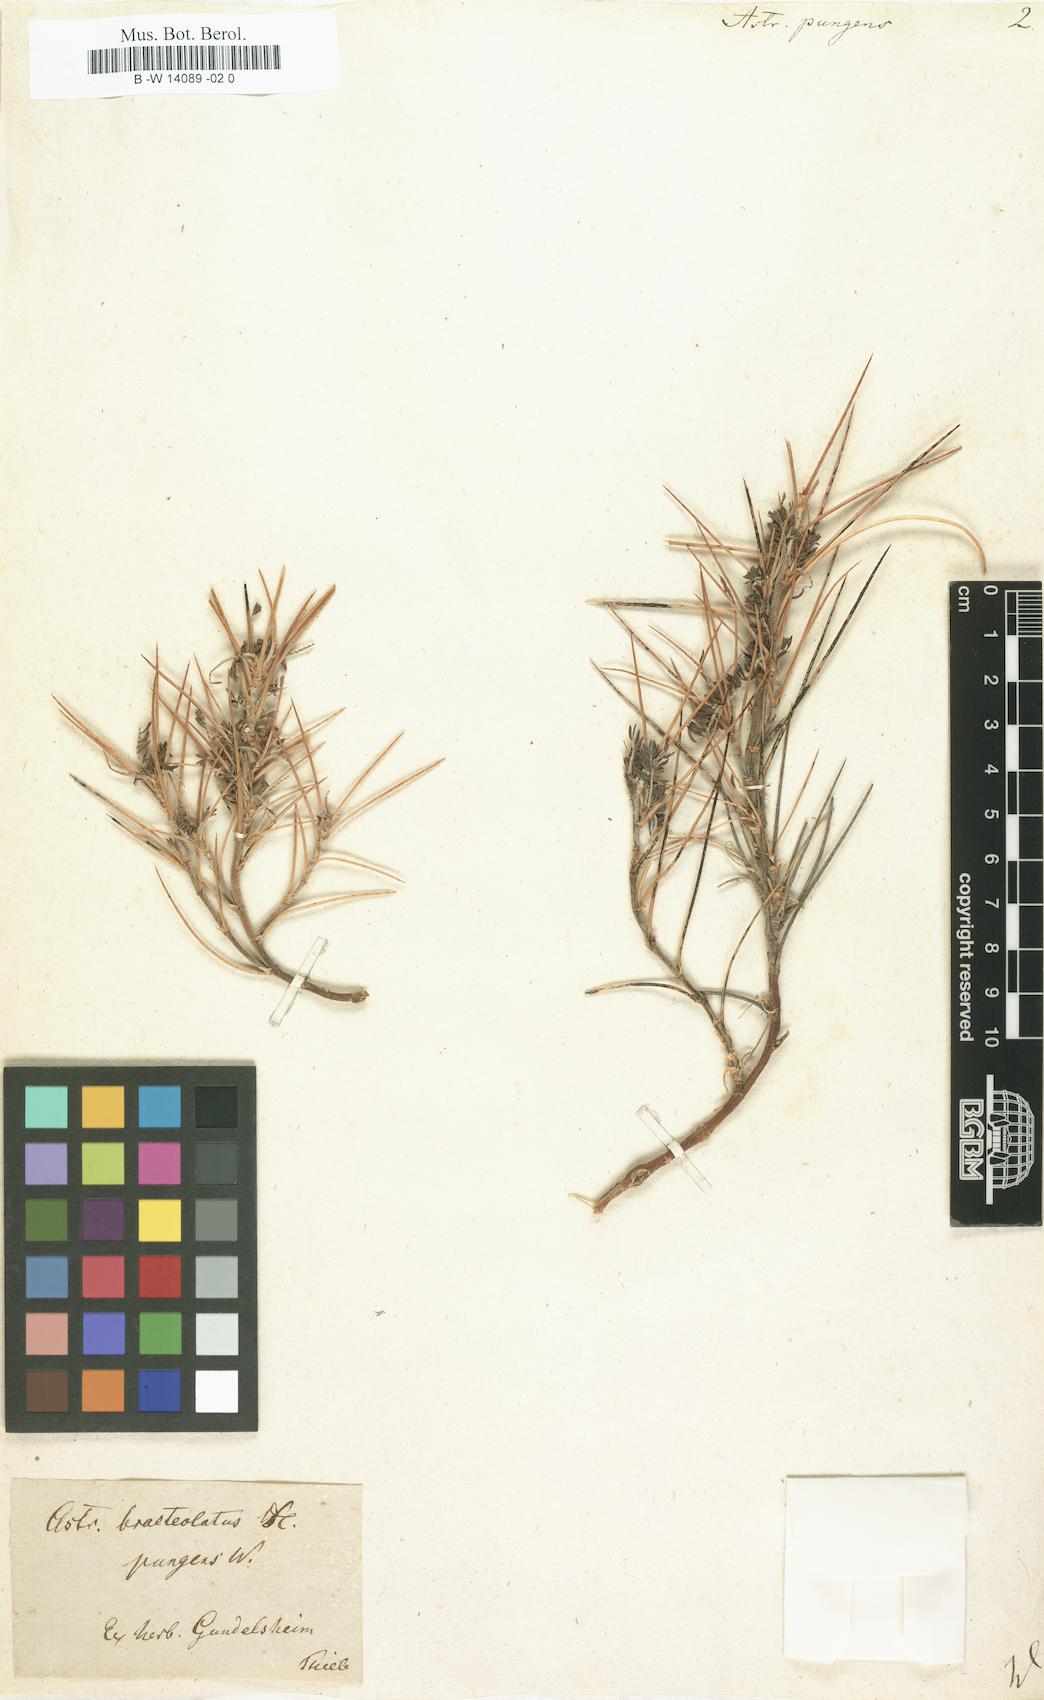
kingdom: Plantae
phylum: Tracheophyta
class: Magnoliopsida
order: Fabales
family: Fabaceae
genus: Astragalus
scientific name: Astragalus pungens
